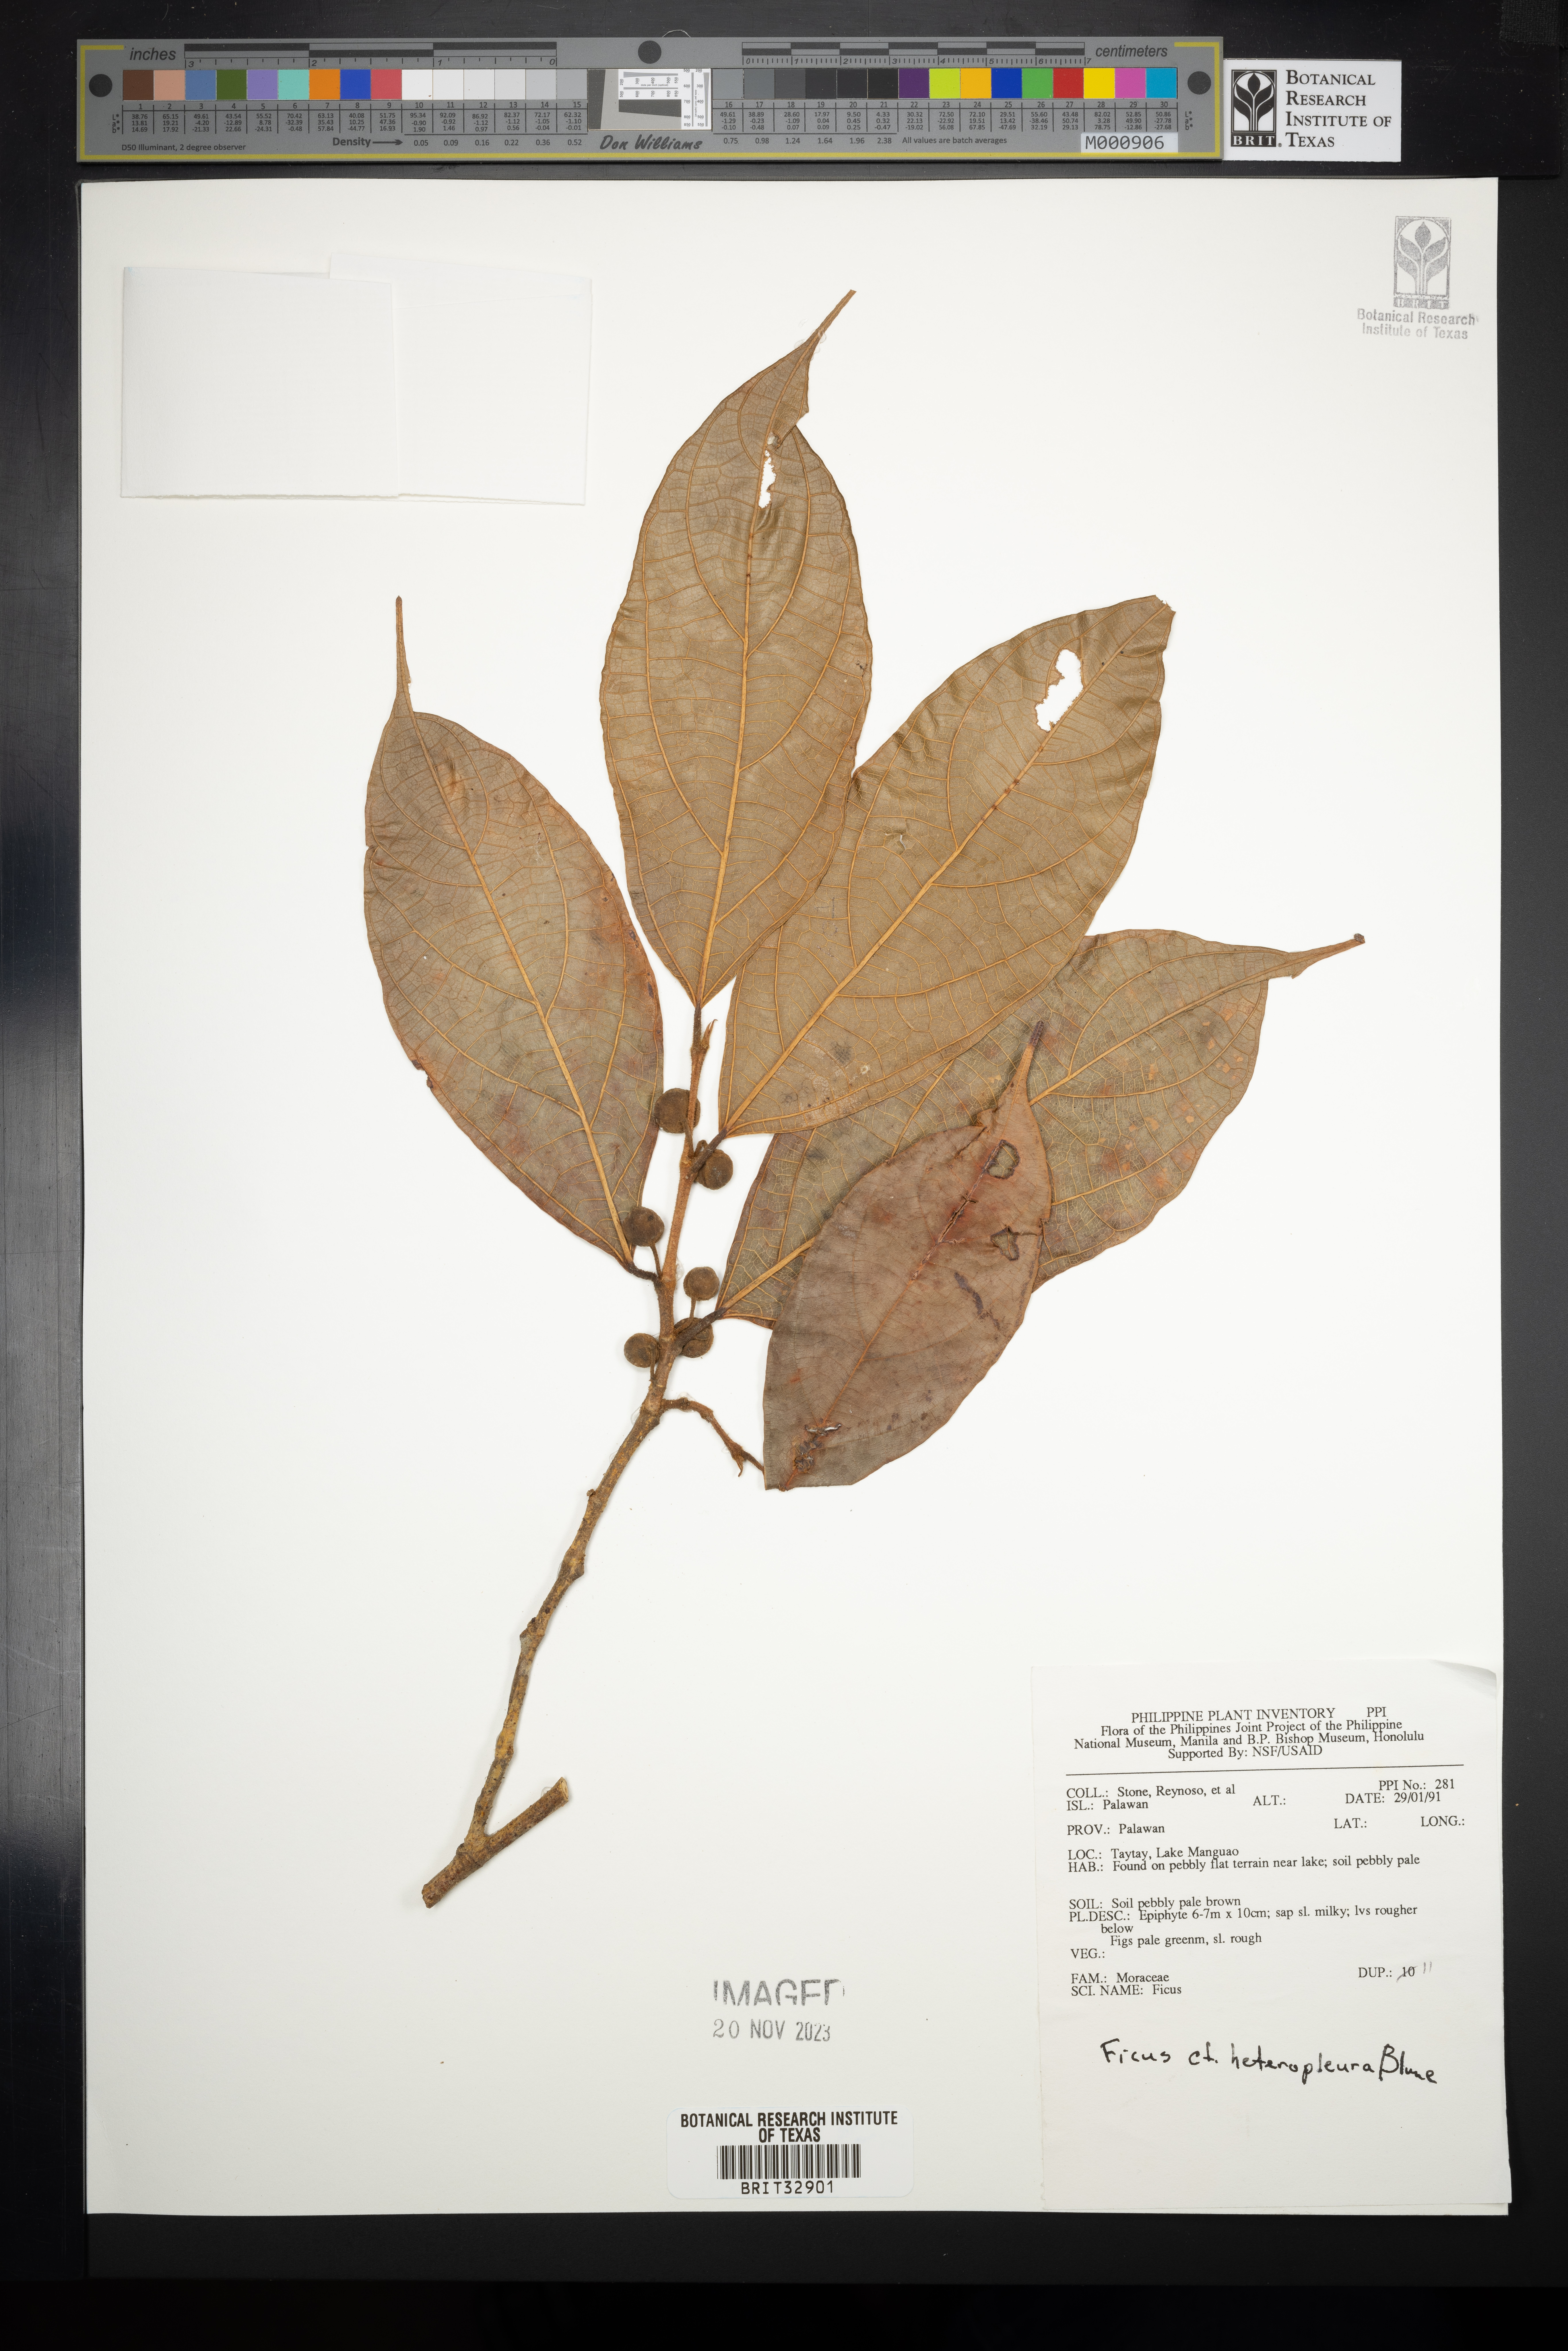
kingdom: Plantae
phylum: Tracheophyta
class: Magnoliopsida
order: Rosales
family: Moraceae
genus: Ficus
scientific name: Ficus heteropleura
